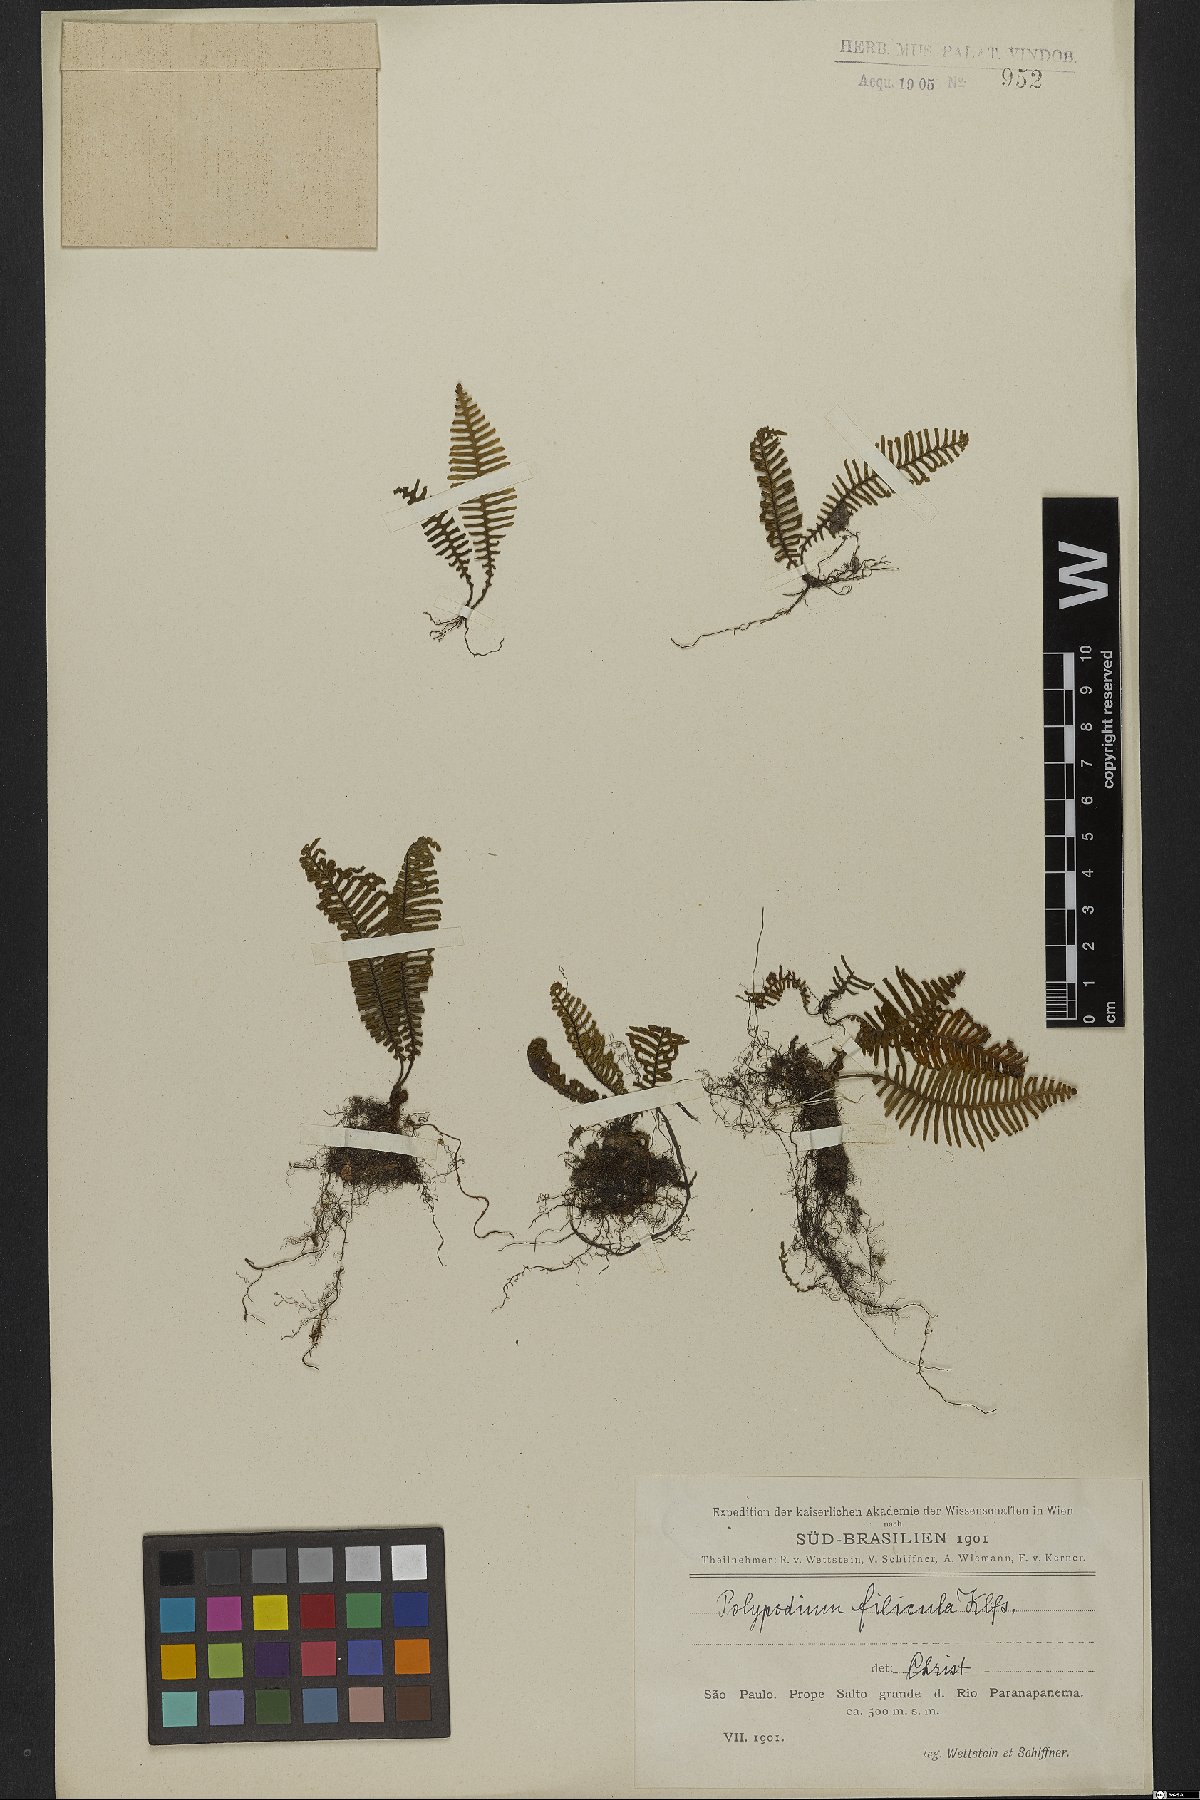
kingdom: Plantae
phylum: Tracheophyta
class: Polypodiopsida
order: Polypodiales
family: Polypodiaceae
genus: Pecluma
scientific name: Pecluma filicula
